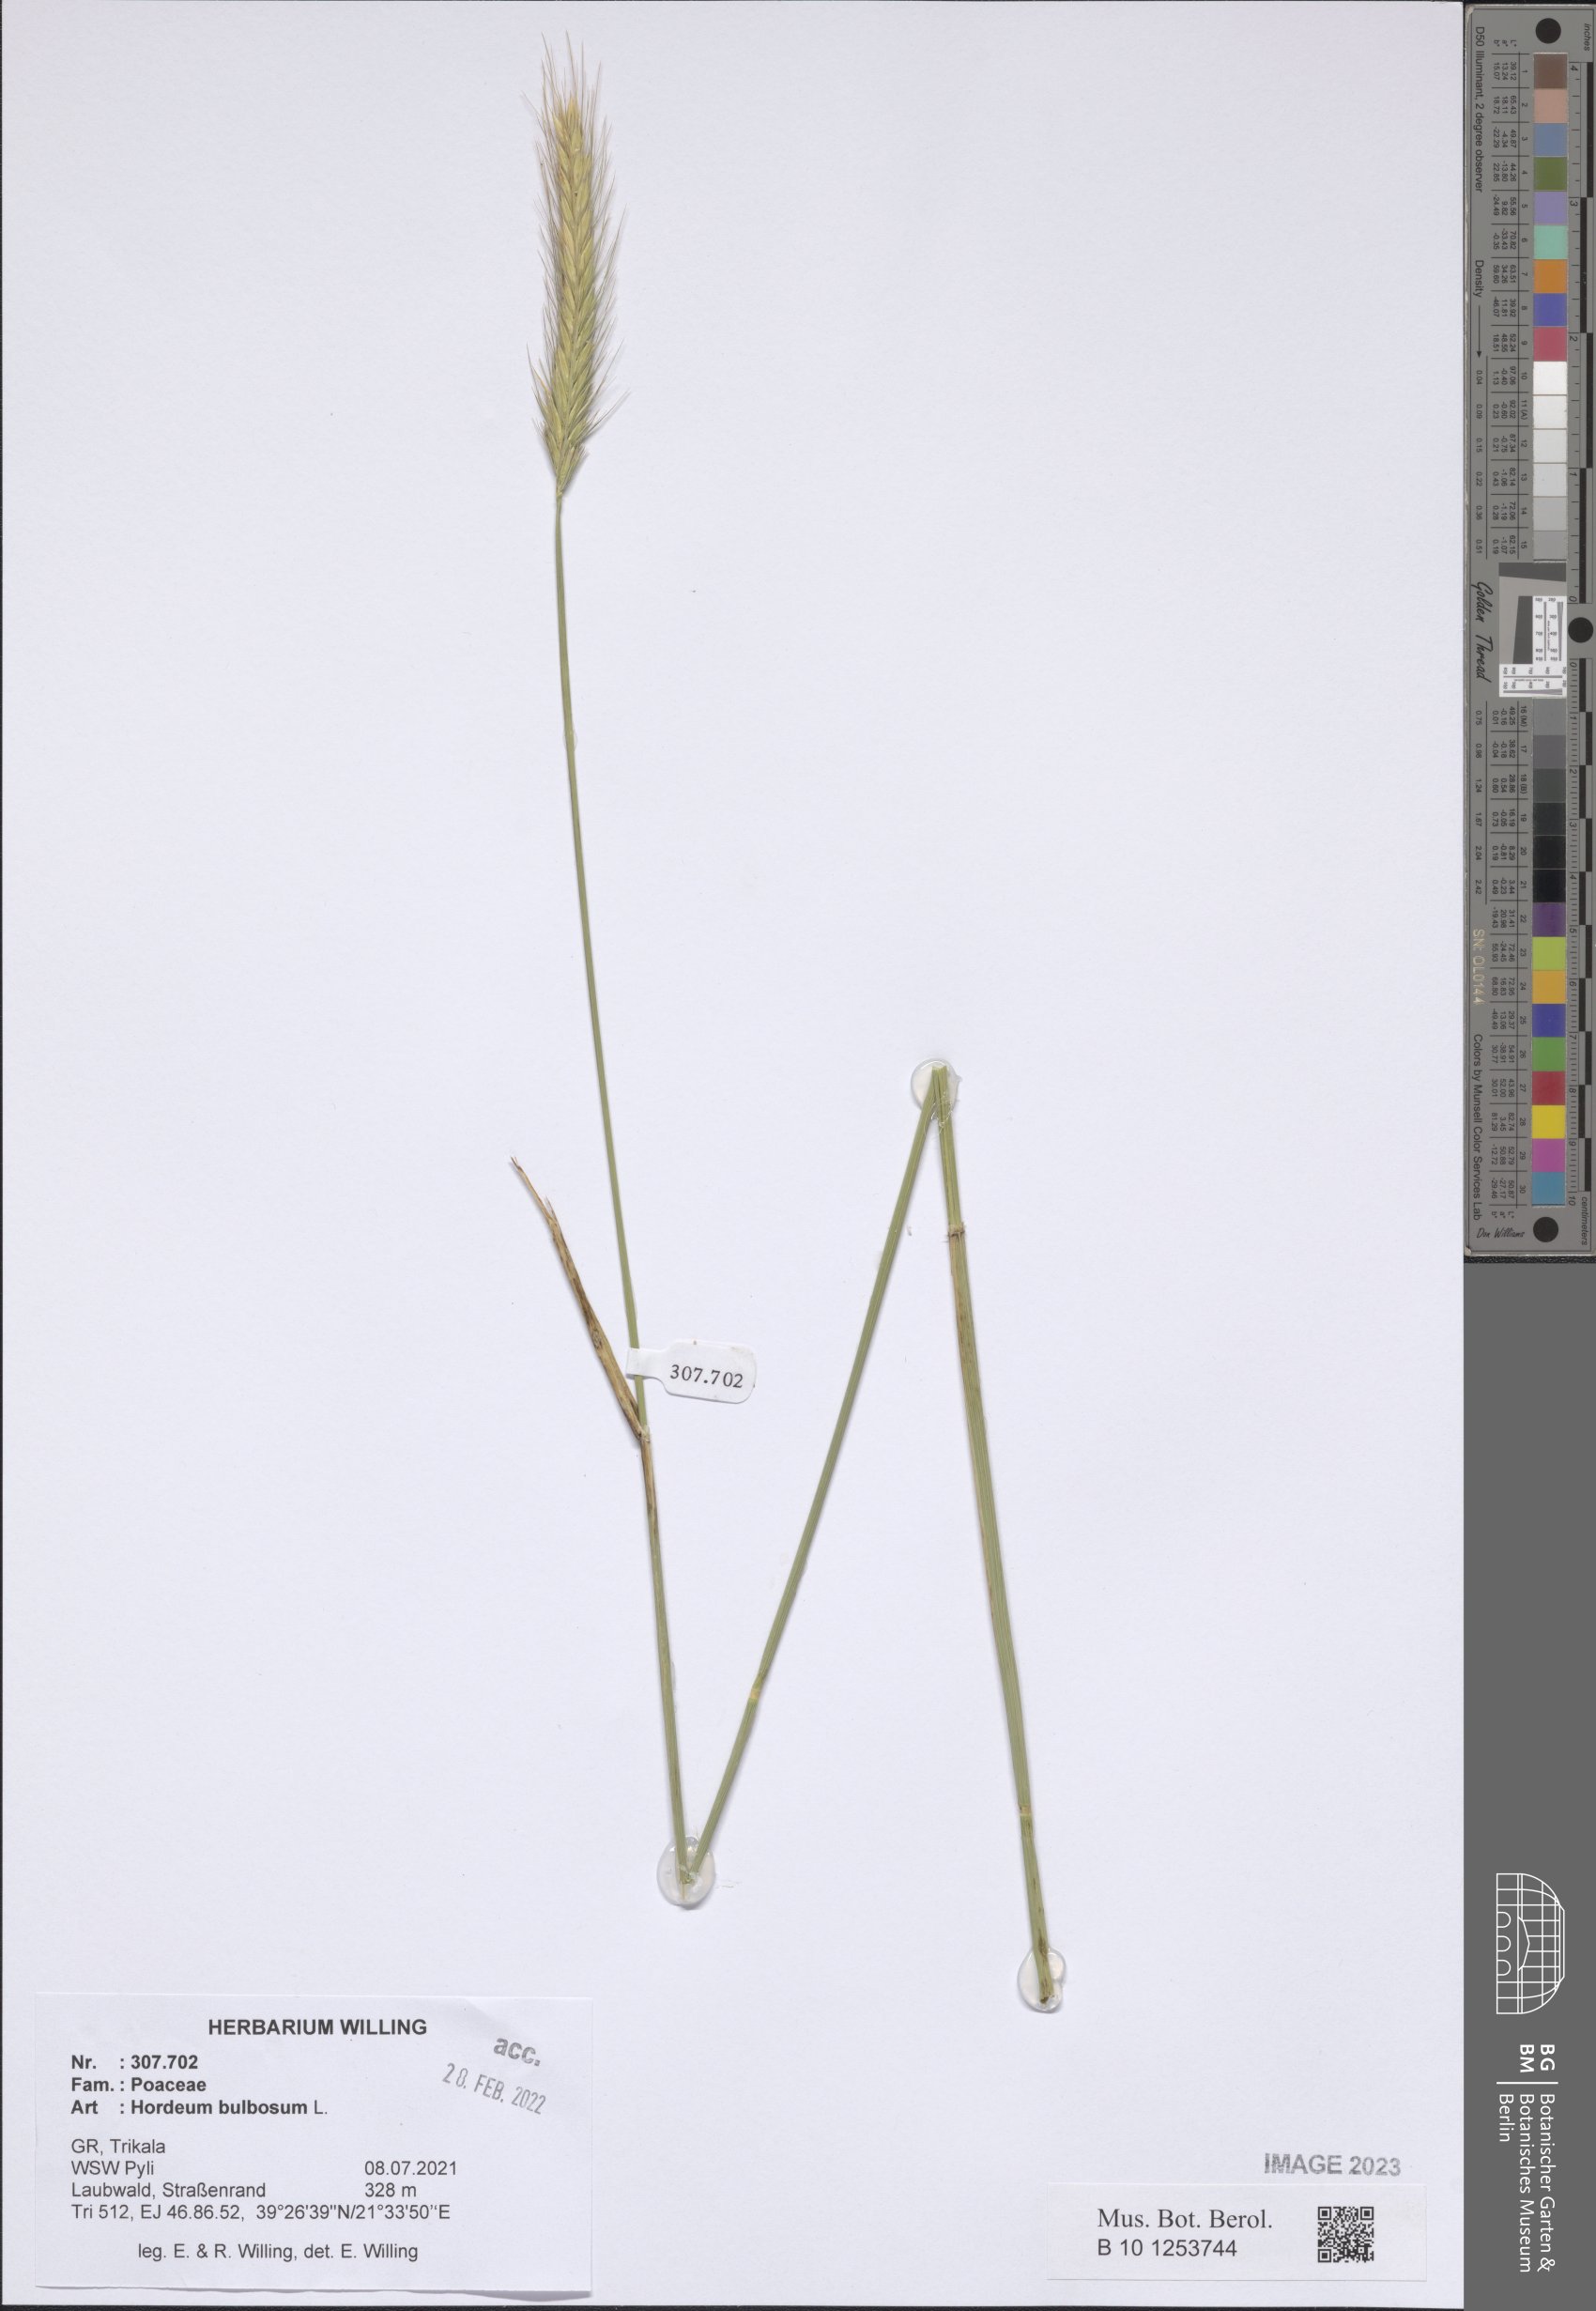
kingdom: Plantae
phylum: Tracheophyta
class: Liliopsida
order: Poales
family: Poaceae
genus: Hordeum
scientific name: Hordeum bulbosum
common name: Bulbous barley
